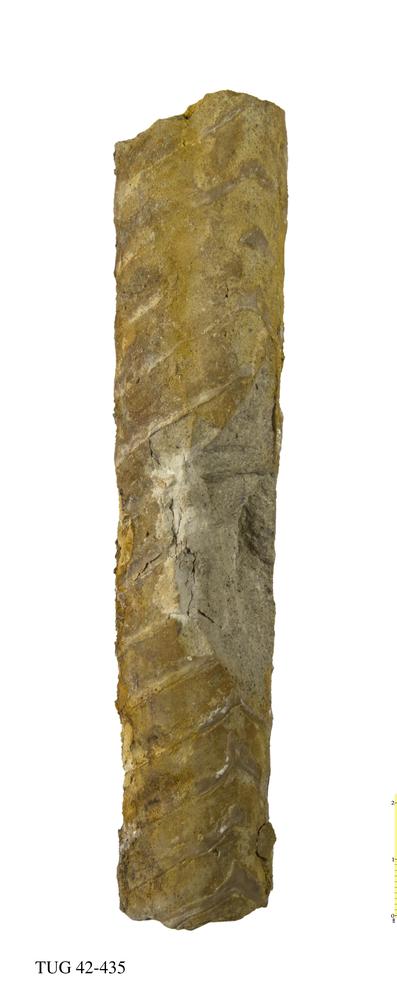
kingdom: Animalia
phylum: Mollusca
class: Cephalopoda
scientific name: Cephalopoda
